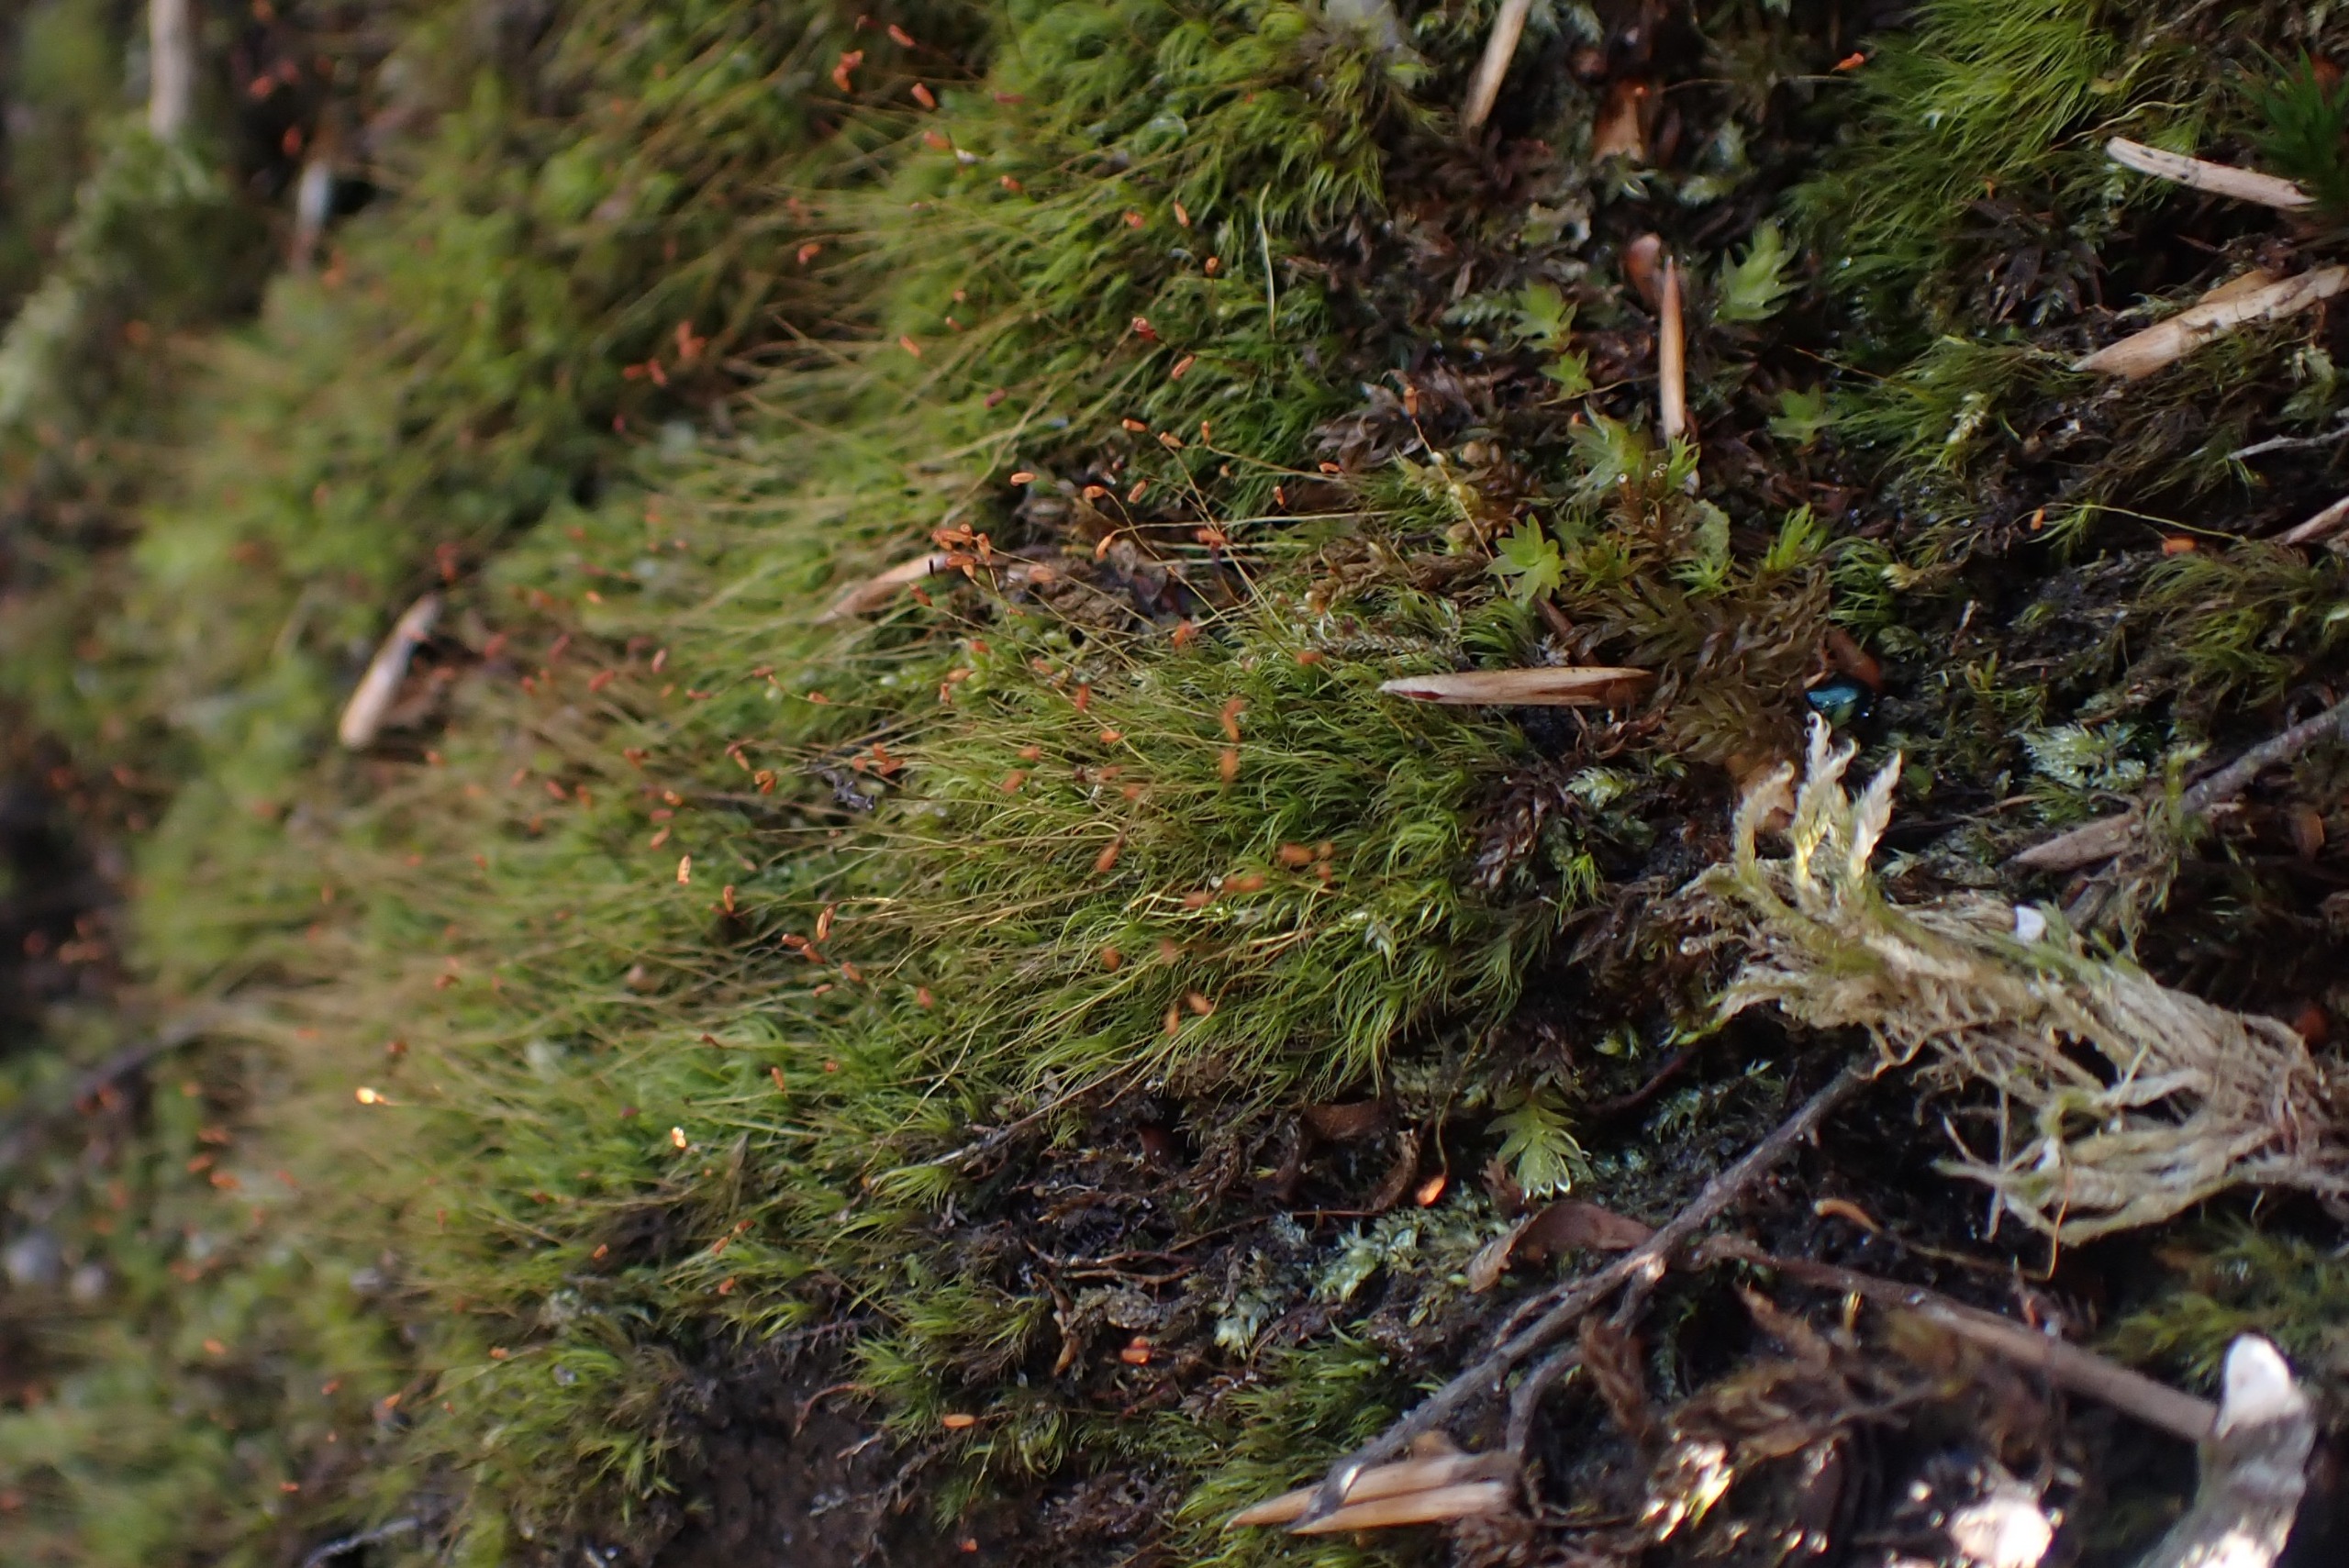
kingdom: Plantae
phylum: Bryophyta
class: Bryopsida
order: Dicranales
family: Dicranellaceae
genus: Dicranella
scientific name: Dicranella heteromalla
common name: Almindelig fløjlsmos
